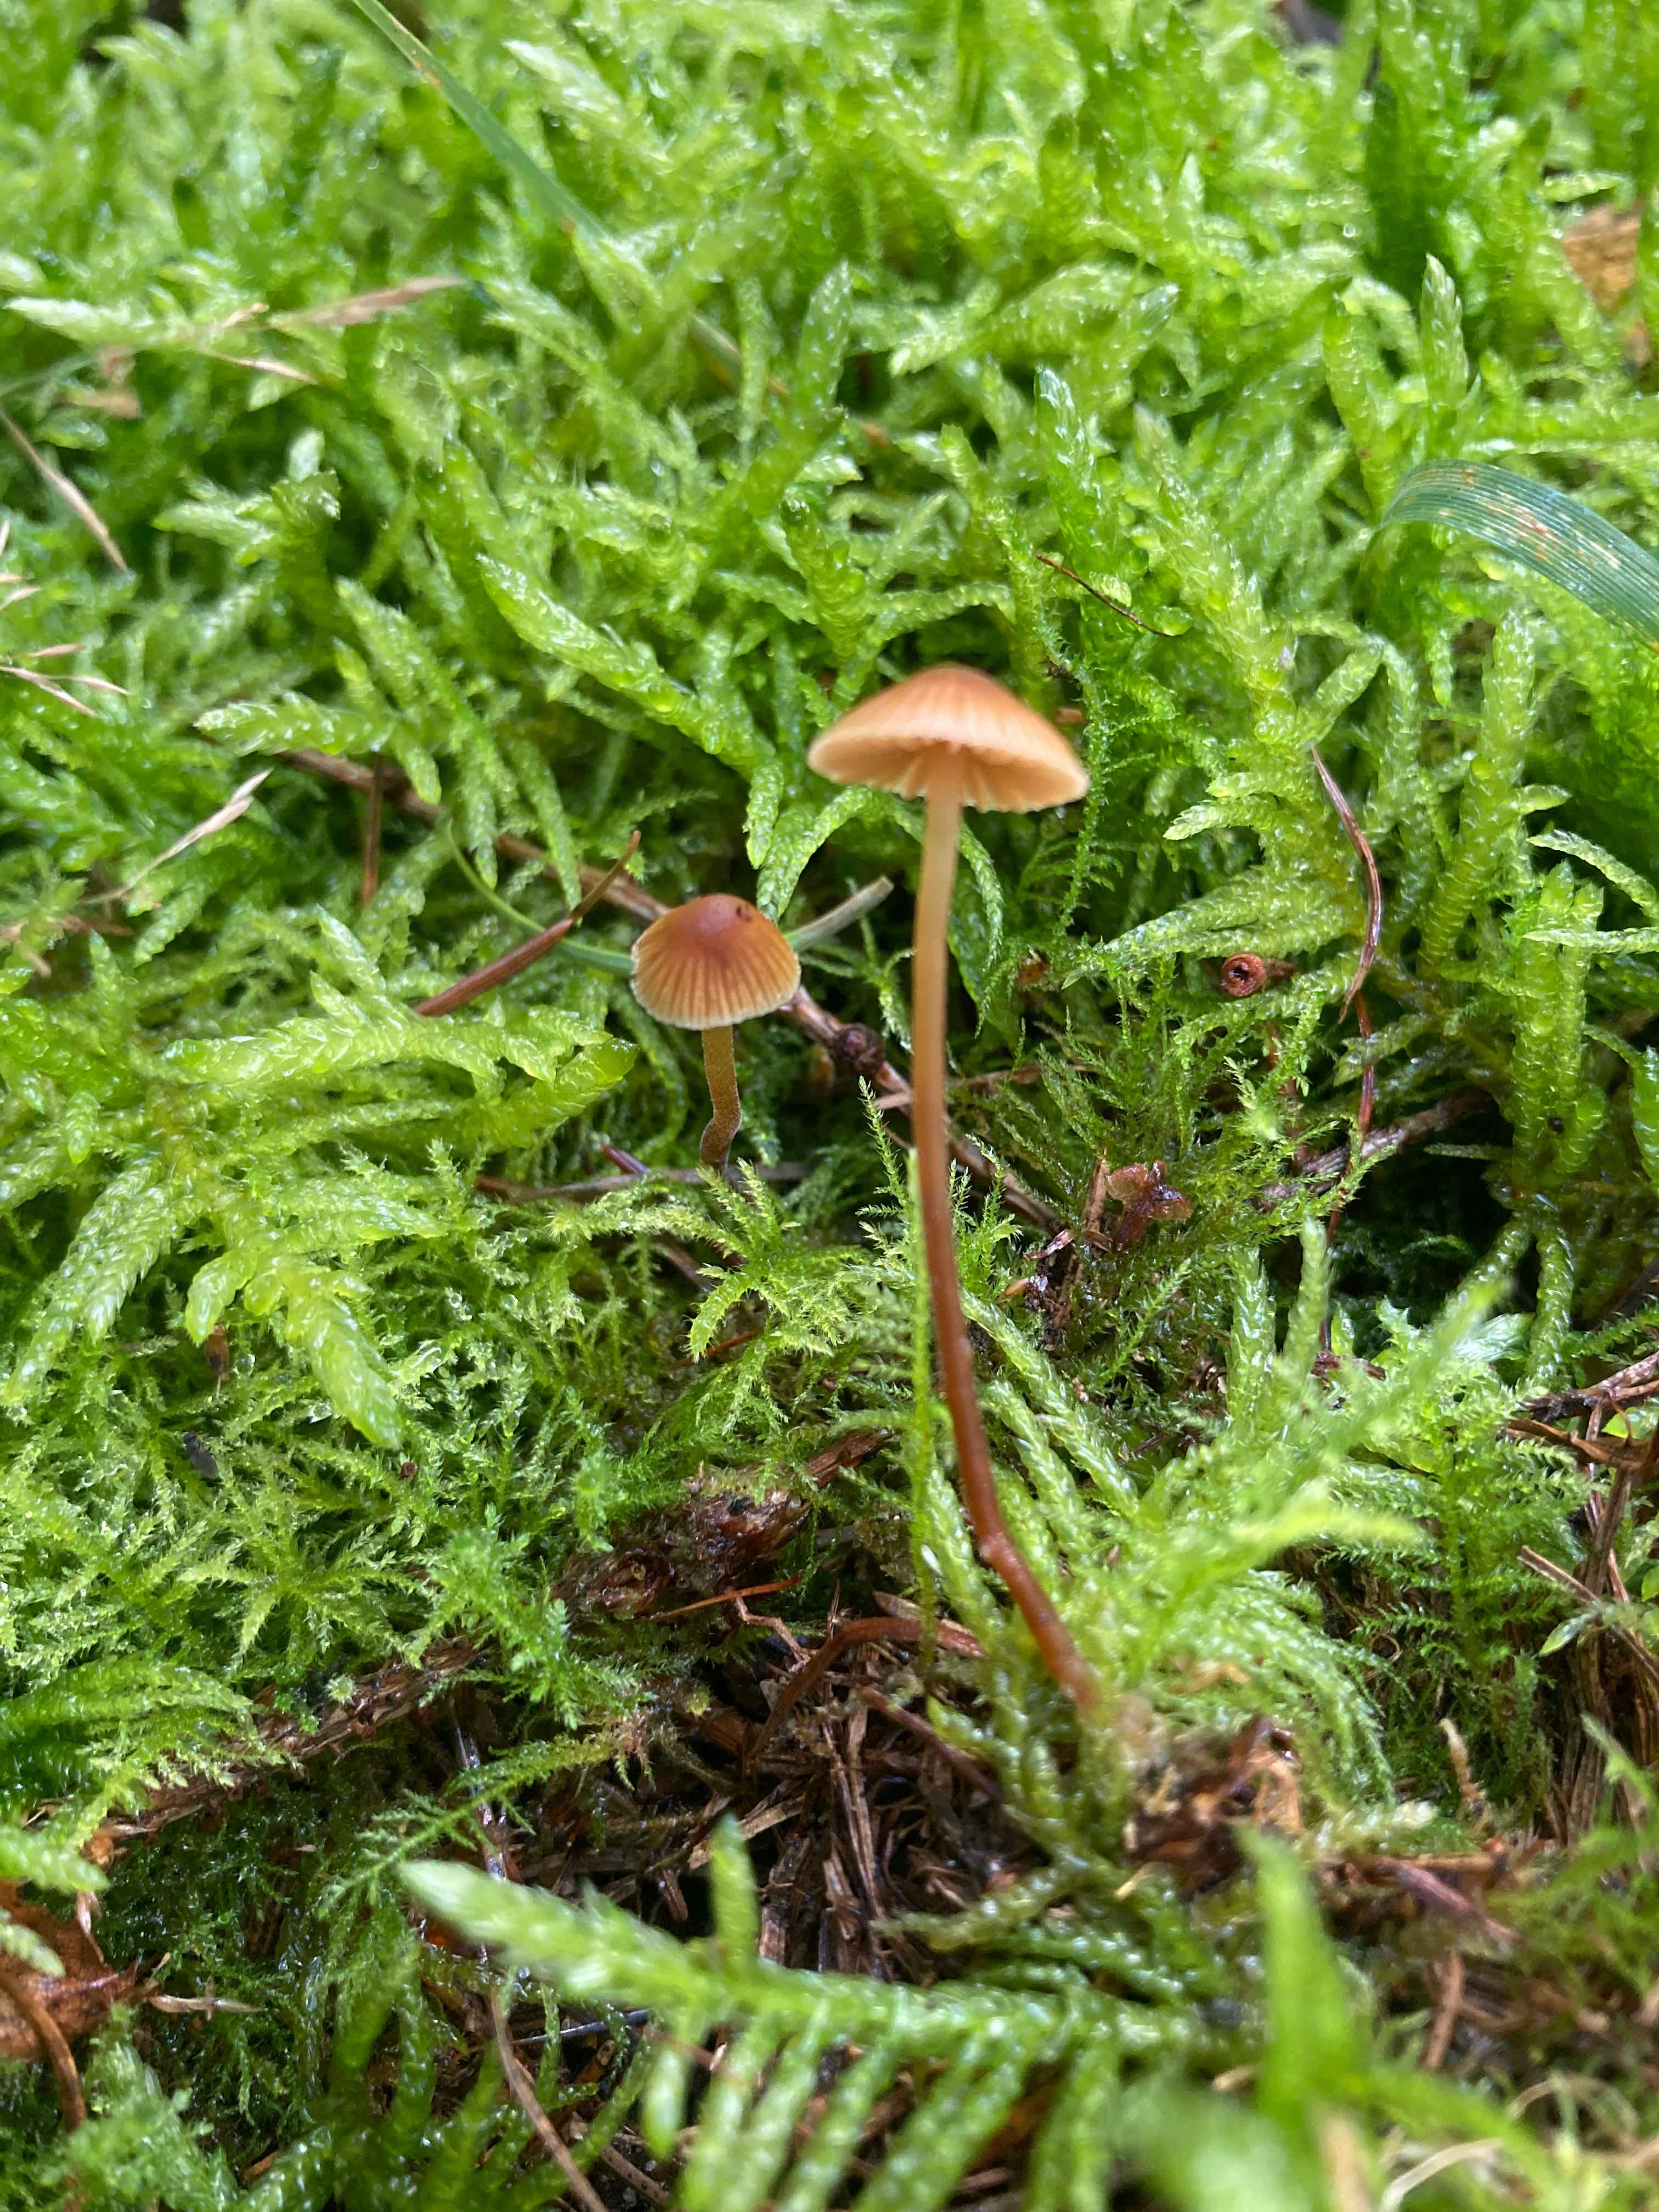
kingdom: Fungi
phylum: Basidiomycota
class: Agaricomycetes
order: Agaricales
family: Hymenogastraceae
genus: Galerina
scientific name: Galerina atkinsoniana
